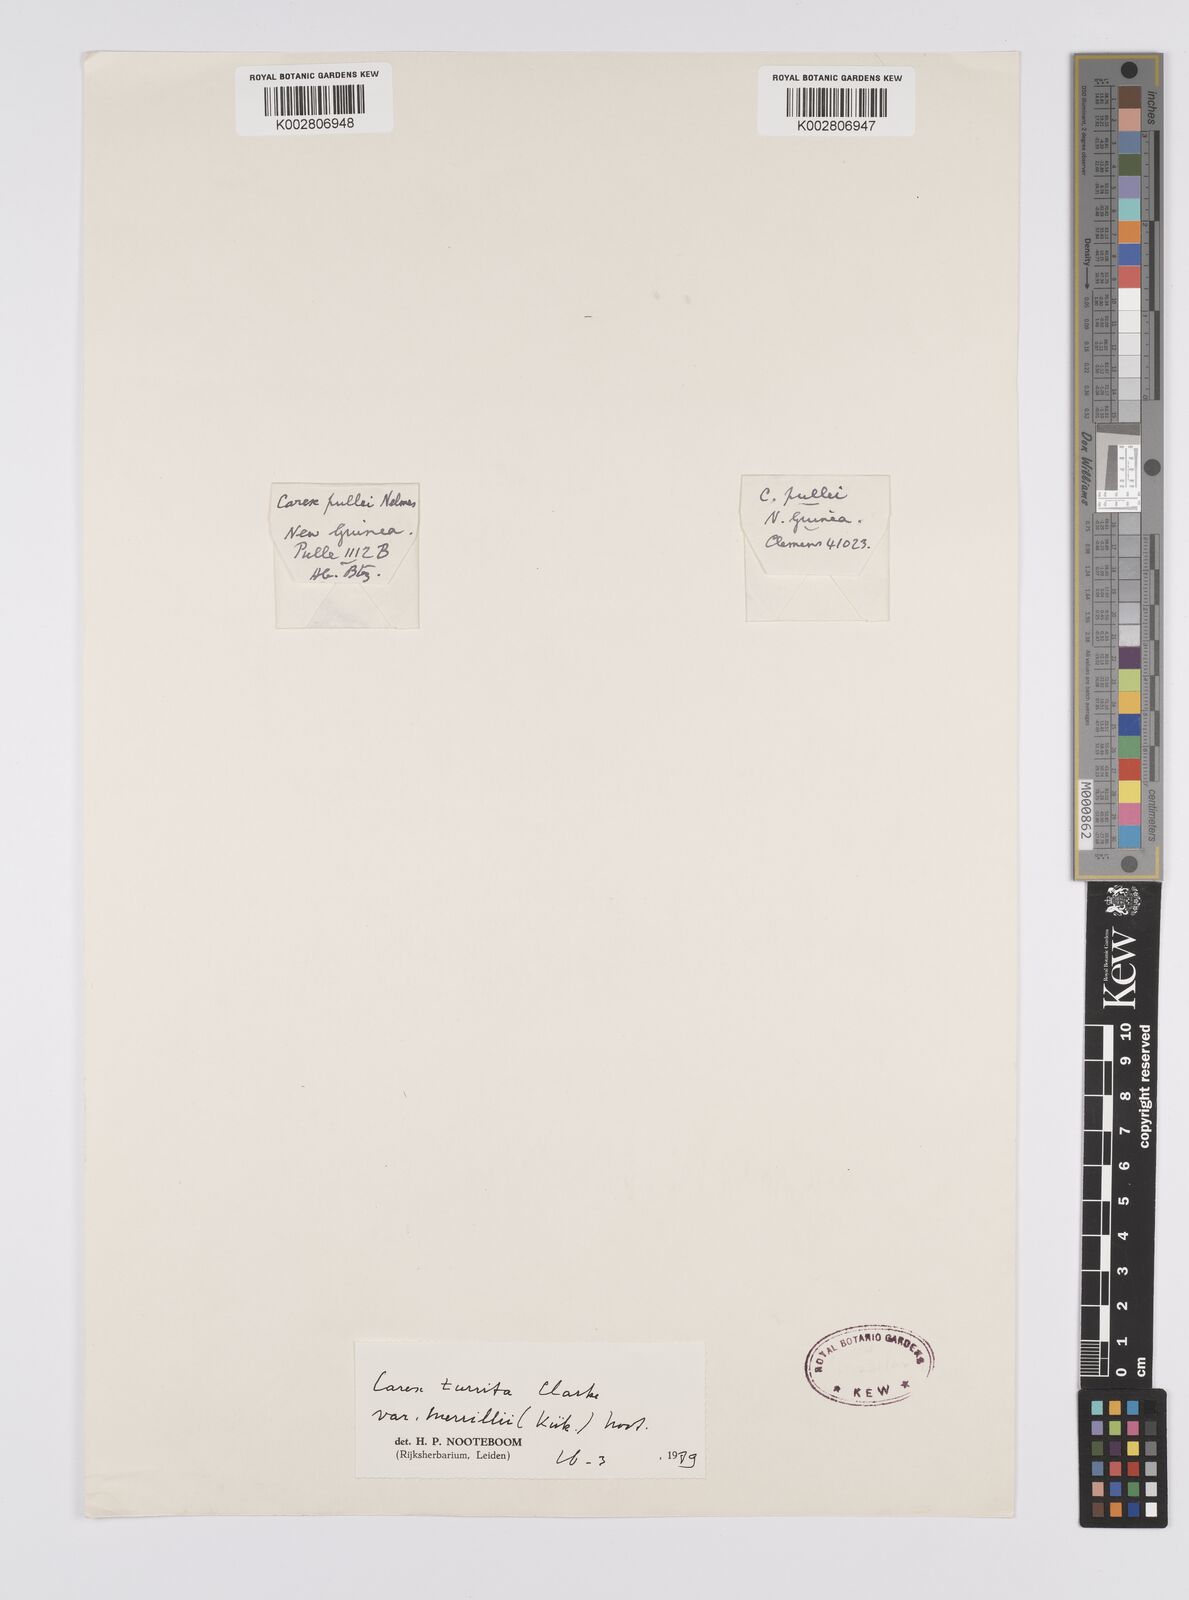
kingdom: Plantae
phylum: Tracheophyta
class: Liliopsida
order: Poales
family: Cyperaceae
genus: Carex
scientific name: Carex turrita
